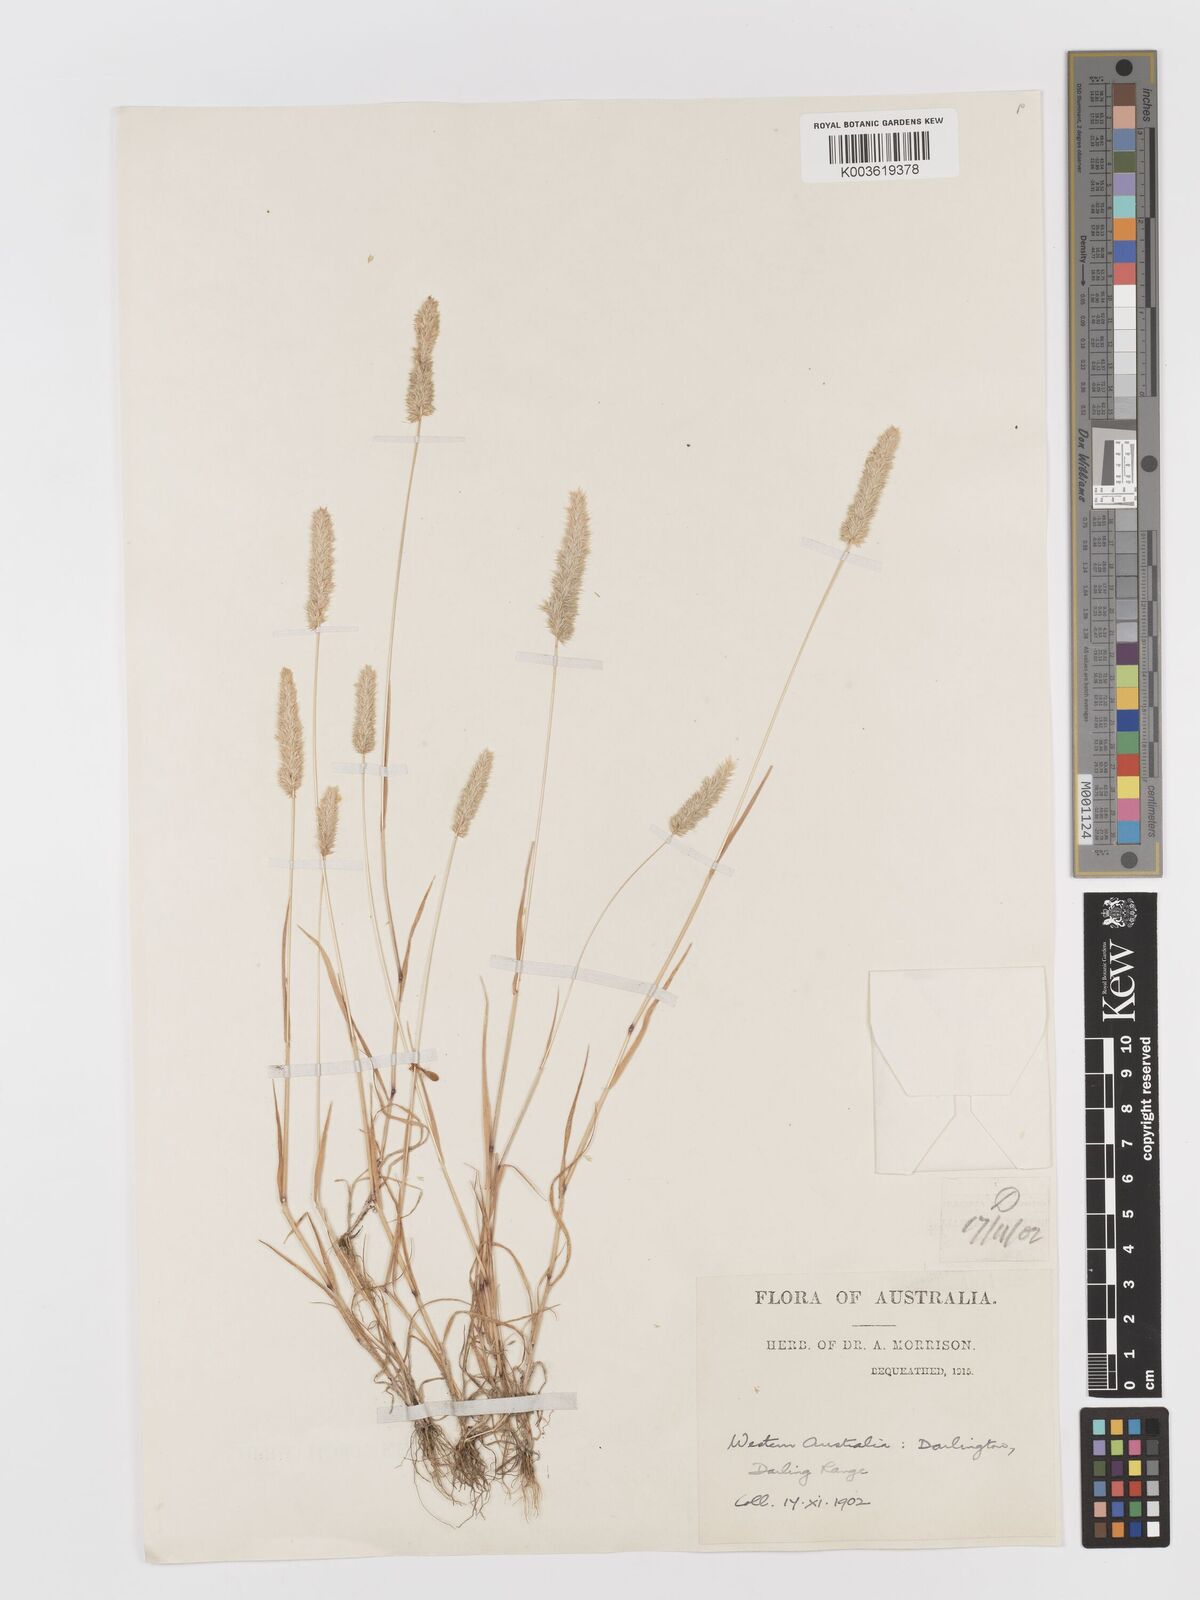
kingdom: Plantae
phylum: Tracheophyta
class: Liliopsida
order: Poales
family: Poaceae
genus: Rostraria
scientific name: Rostraria
